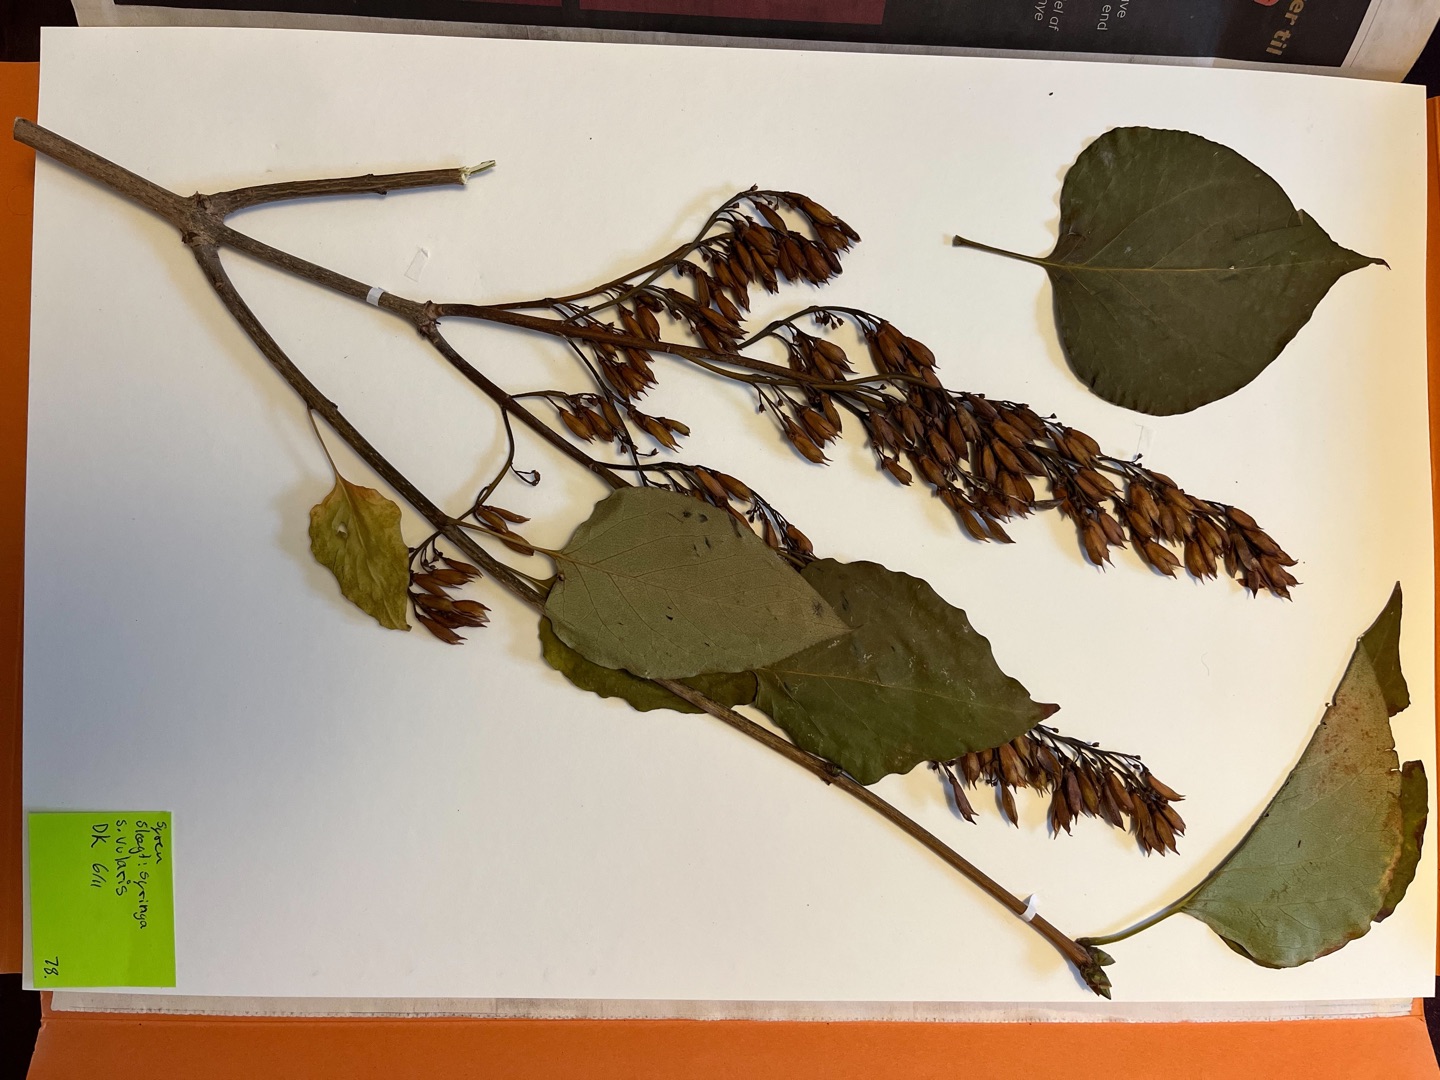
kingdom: Plantae
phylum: Tracheophyta
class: Magnoliopsida
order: Lamiales
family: Oleaceae
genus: Syringa
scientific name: Syringa vulgaris
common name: Syren
